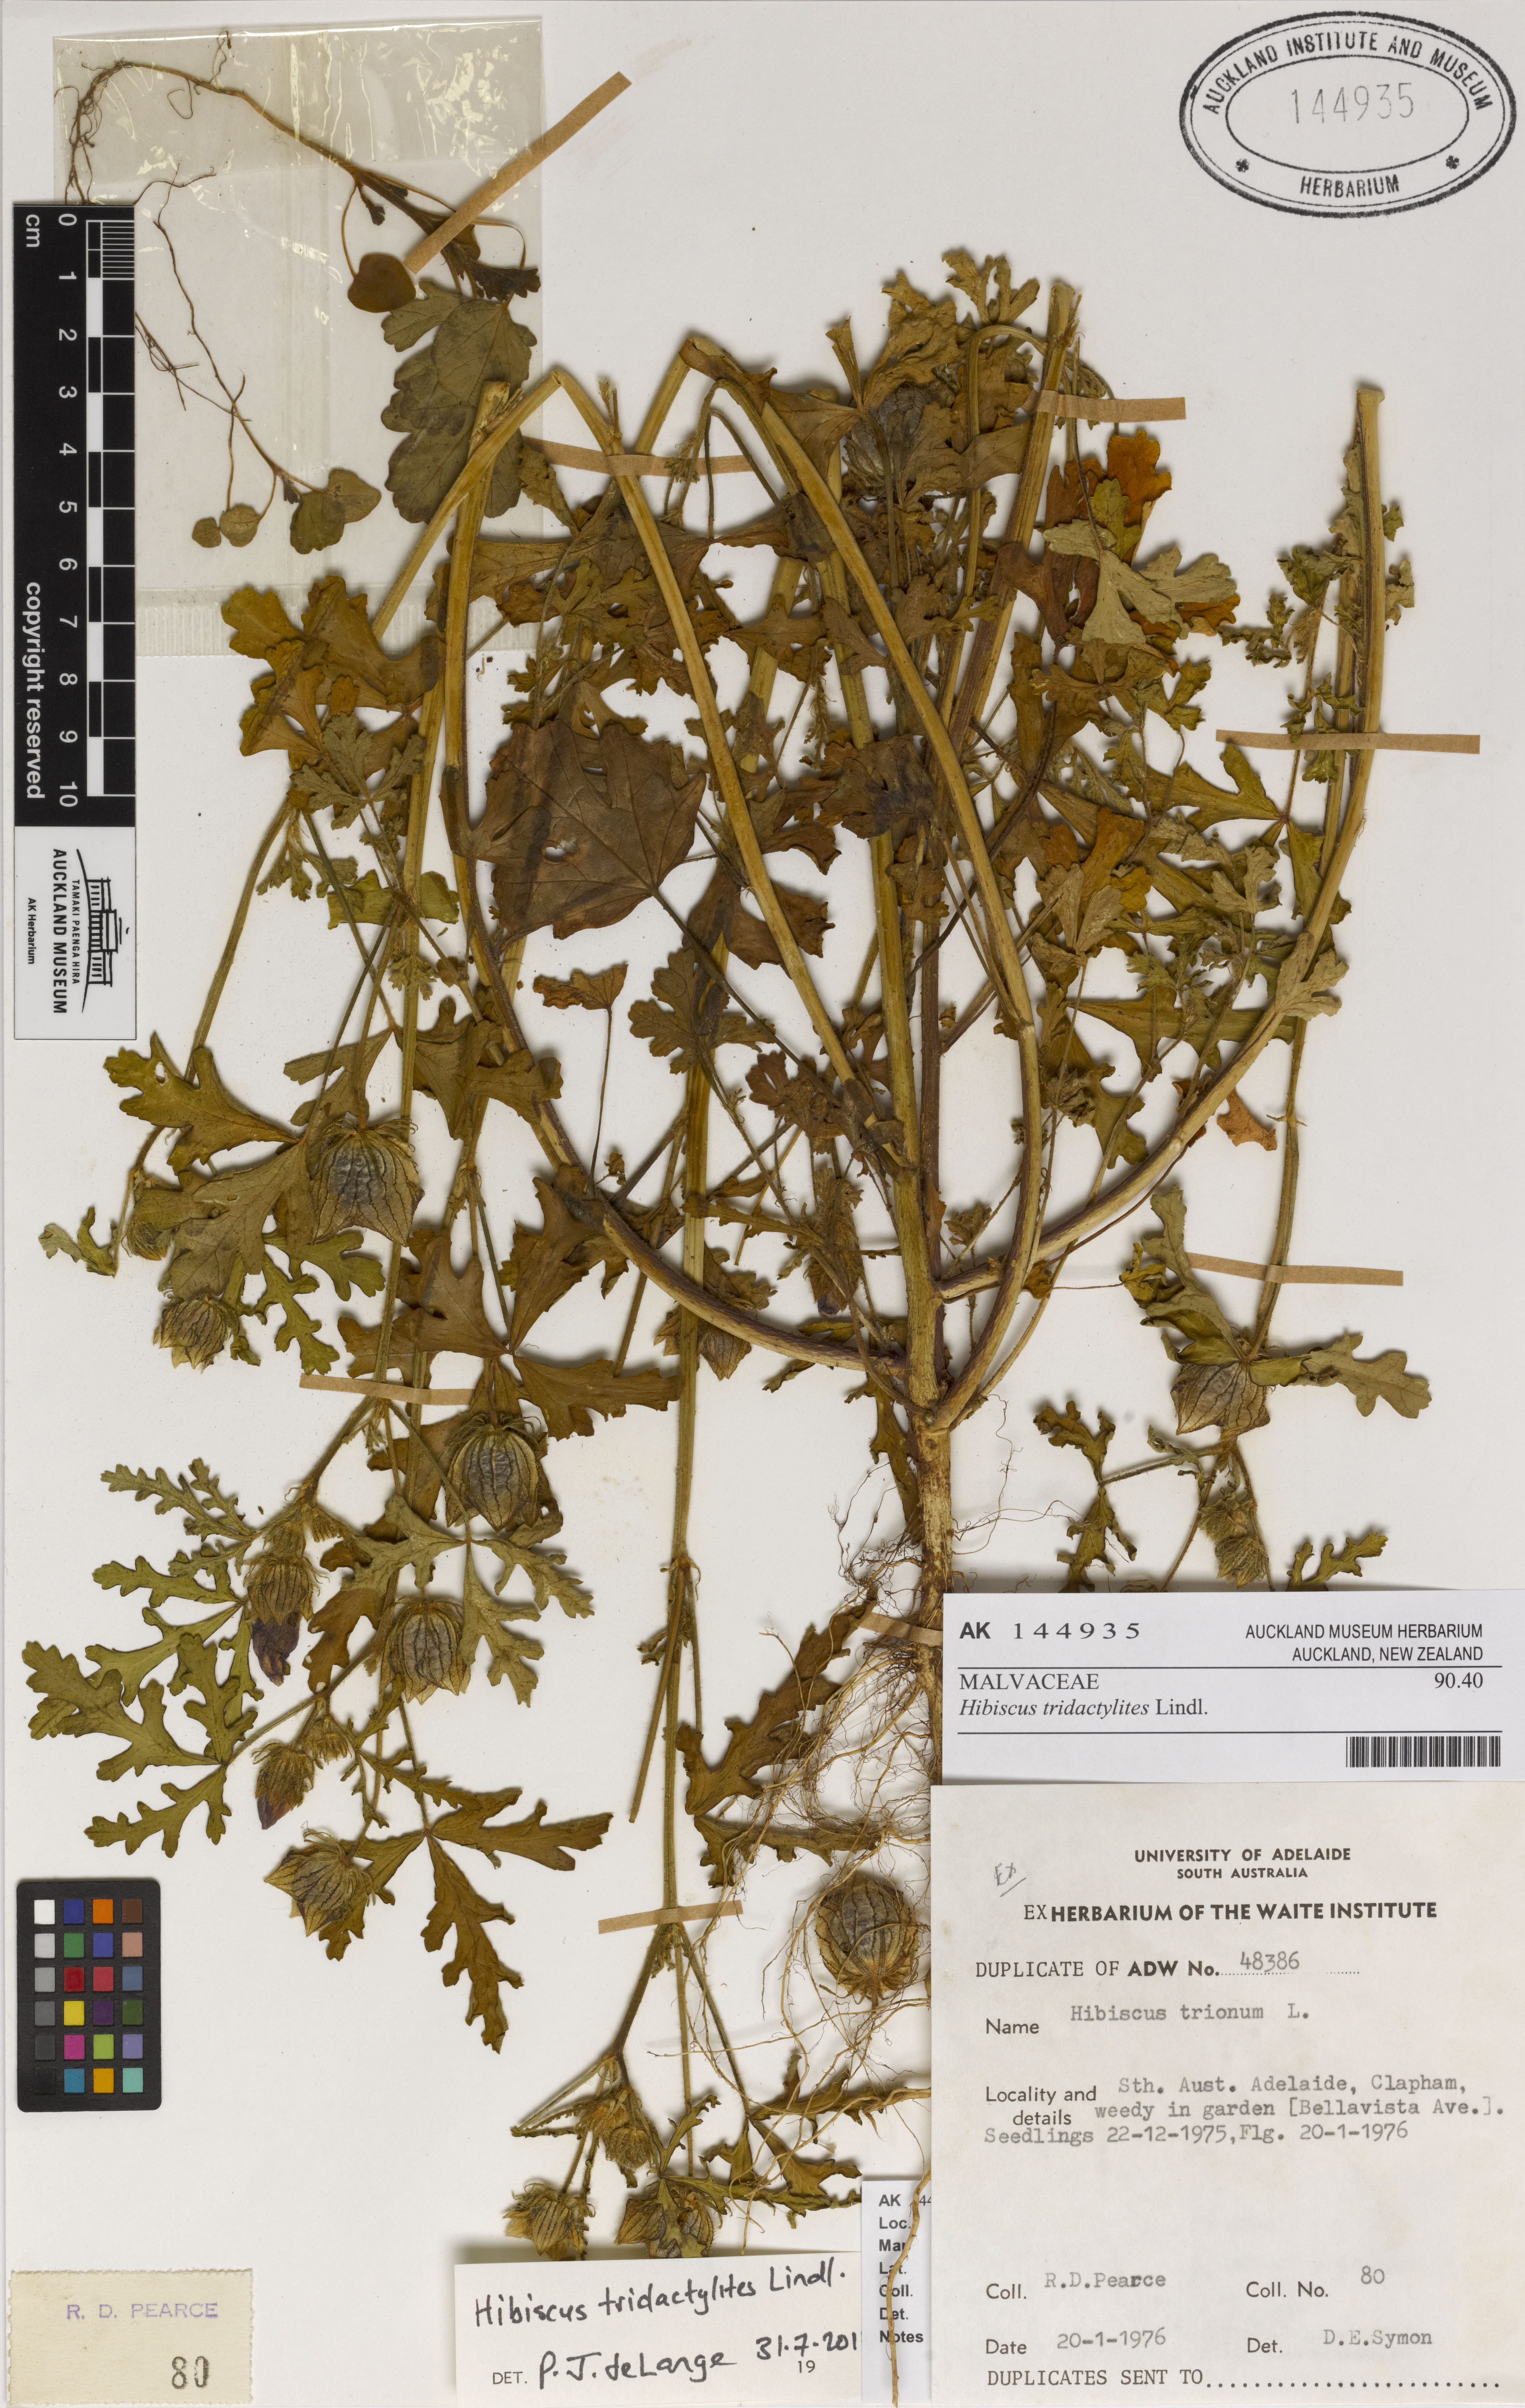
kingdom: Plantae
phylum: Tracheophyta
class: Magnoliopsida
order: Malvales
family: Malvaceae
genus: Hibiscus
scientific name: Hibiscus tridactylites
